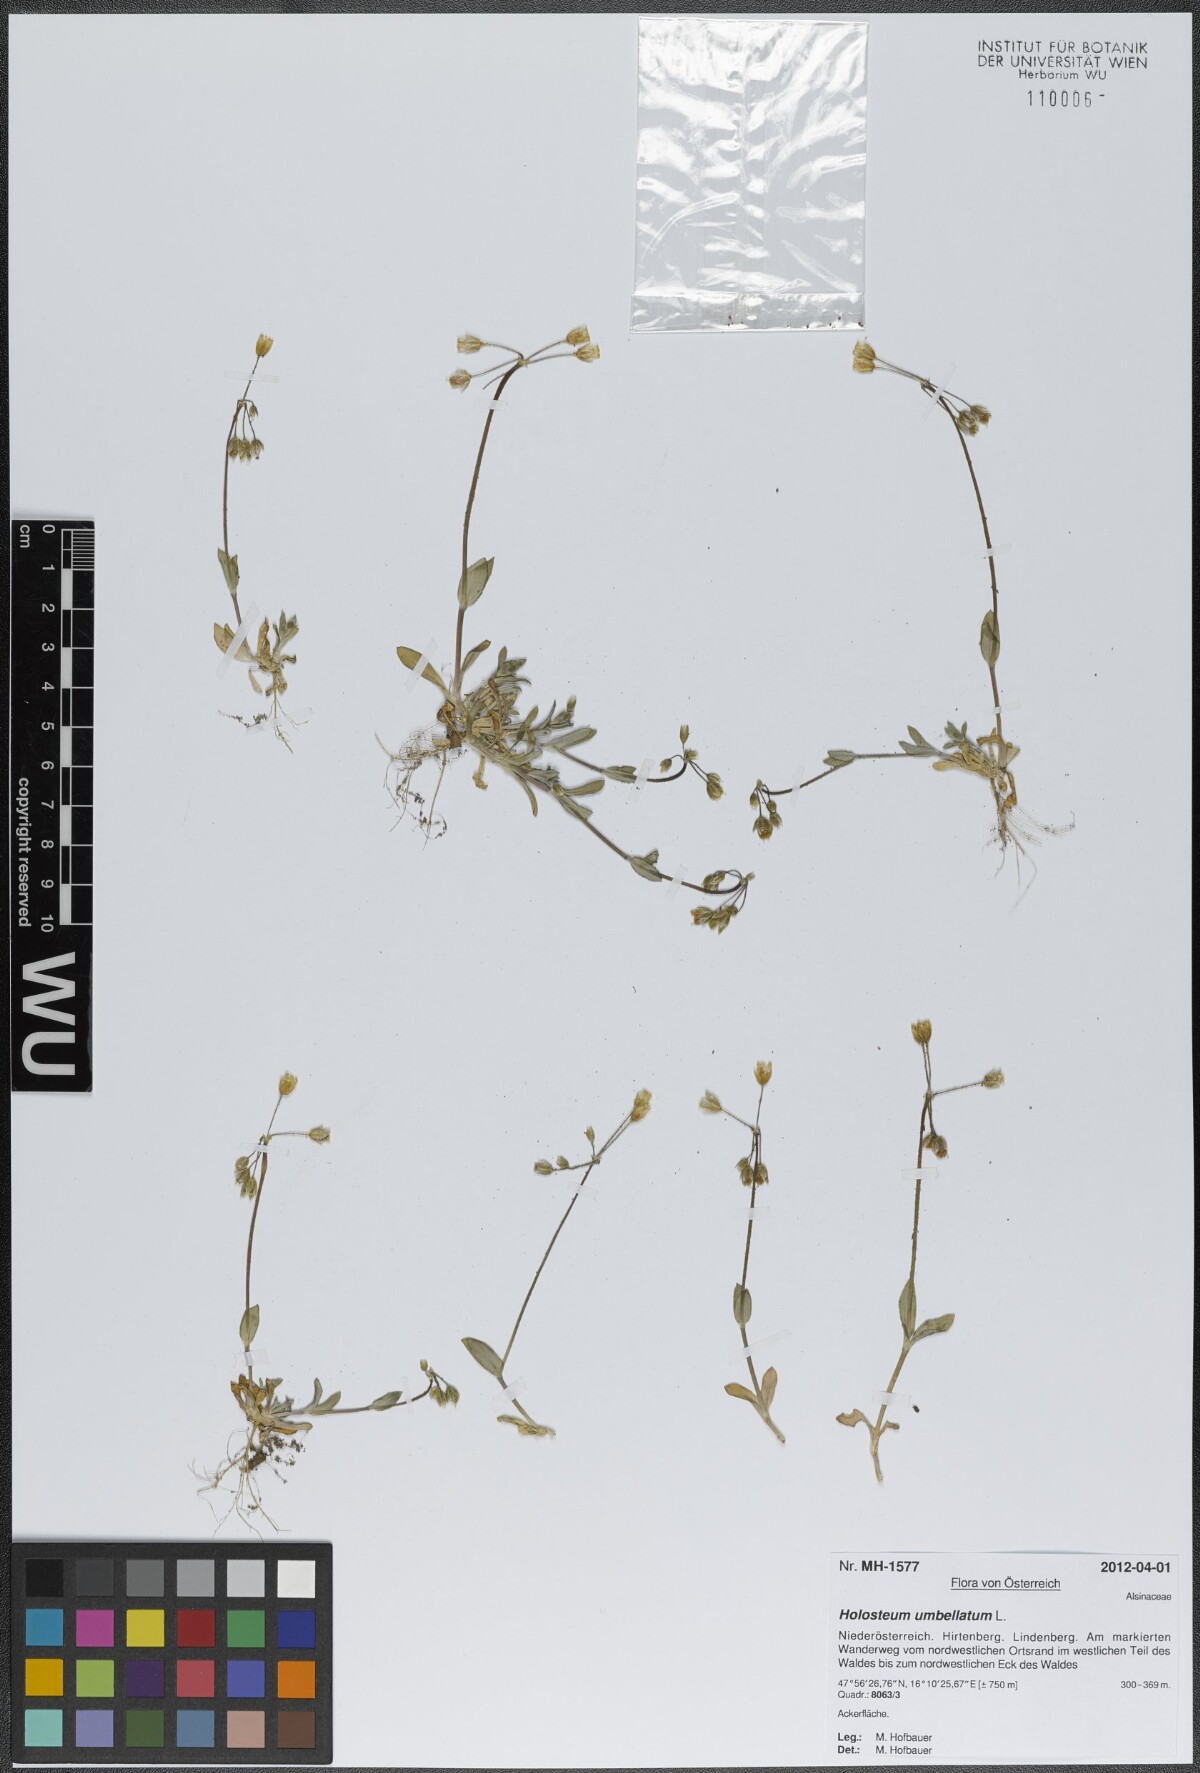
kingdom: Plantae
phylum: Tracheophyta
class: Magnoliopsida
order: Caryophyllales
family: Caryophyllaceae
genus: Holosteum
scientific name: Holosteum umbellatum
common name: Jagged chickweed
